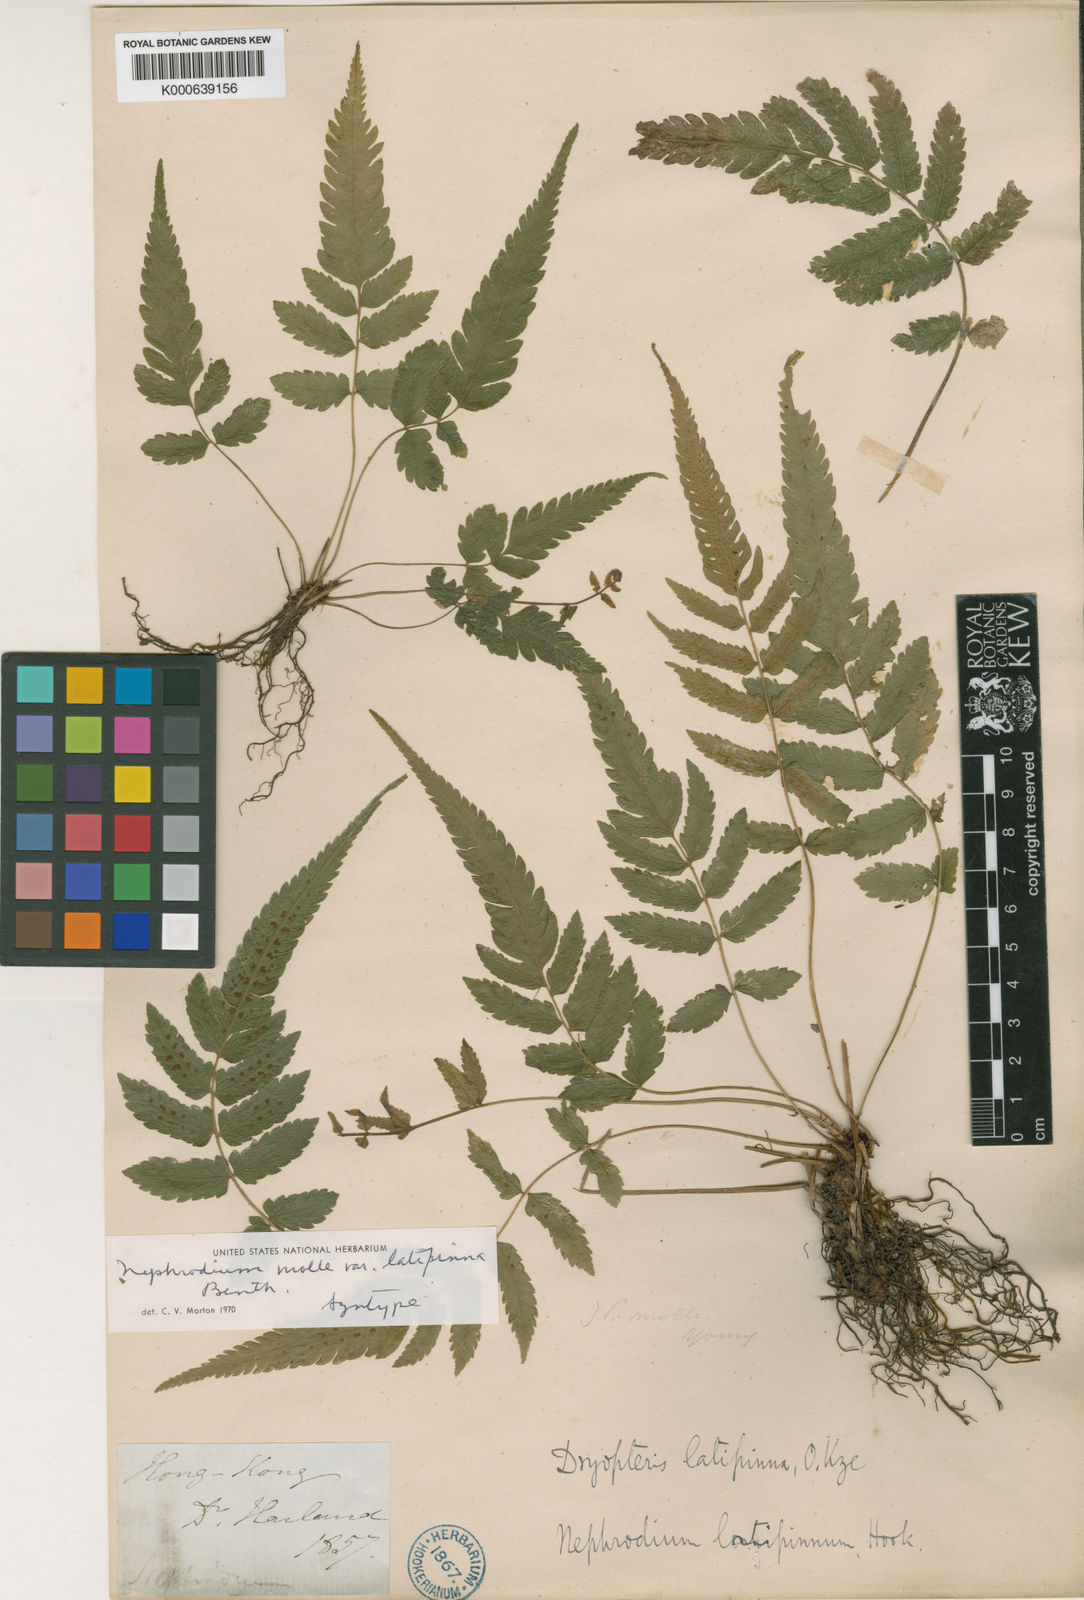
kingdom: Plantae
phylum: Tracheophyta
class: Polypodiopsida
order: Polypodiales
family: Thelypteridaceae
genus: Christella
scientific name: Christella subpubescens
